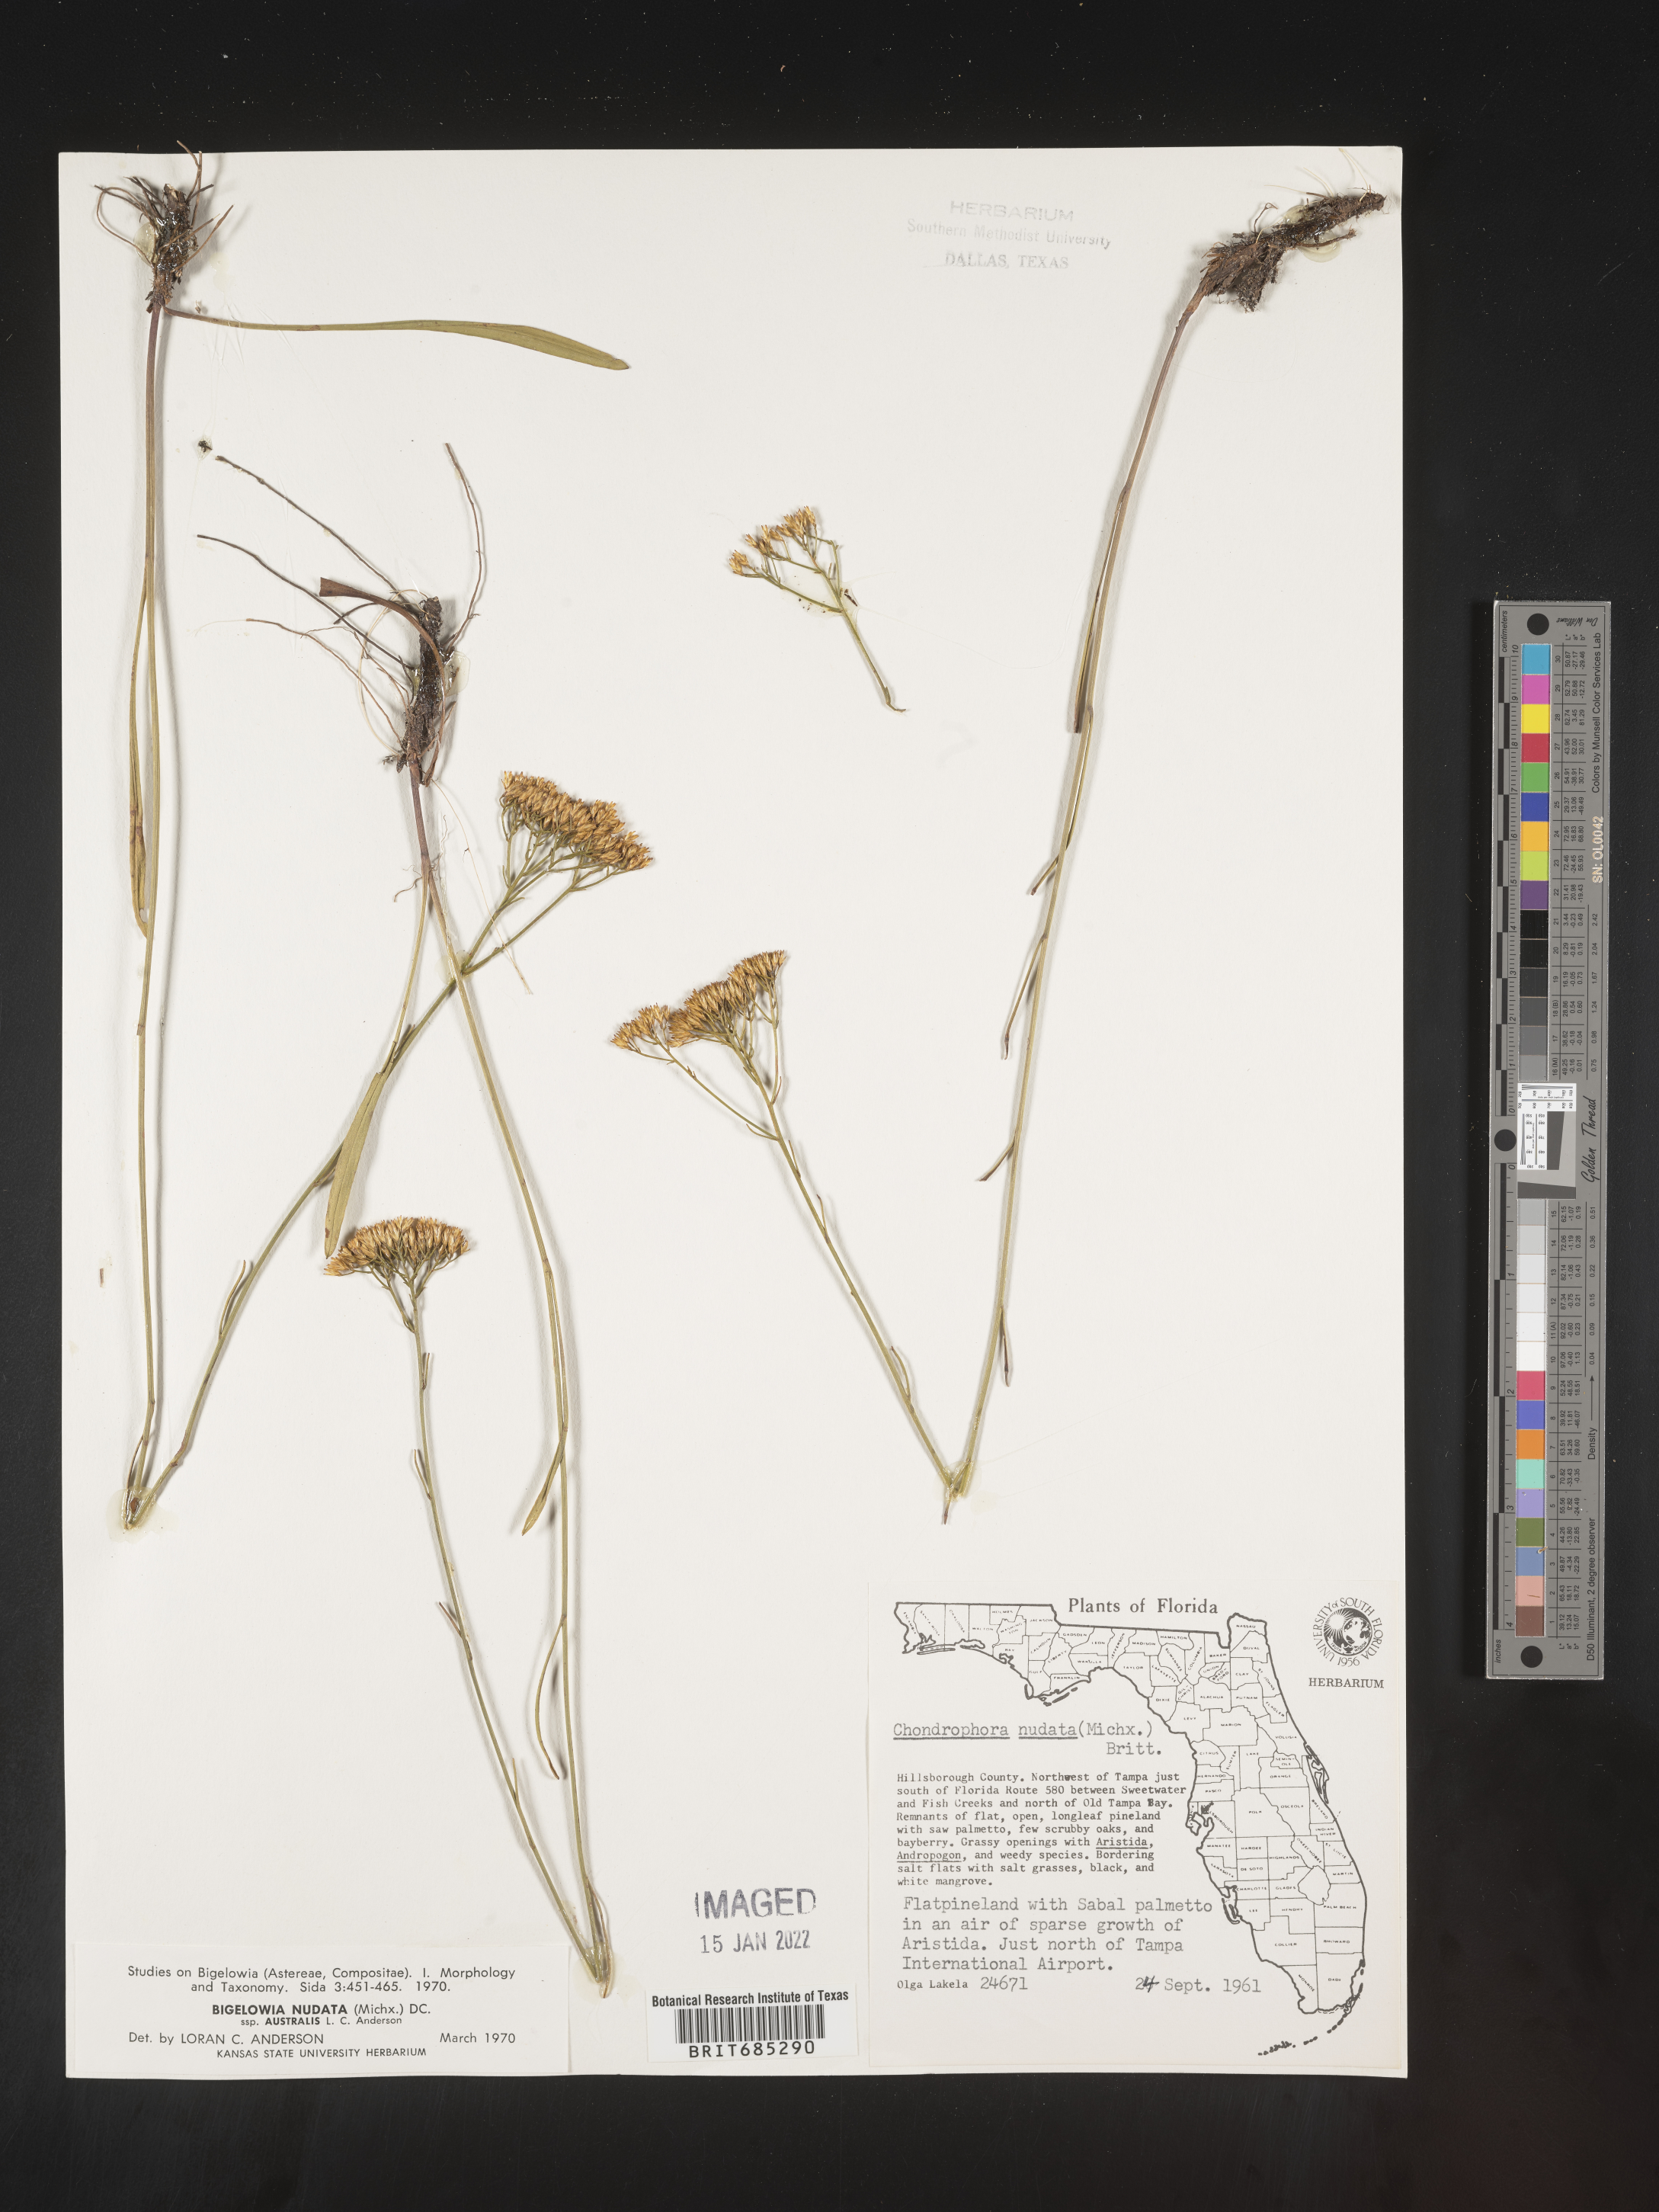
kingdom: Plantae
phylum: Tracheophyta
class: Magnoliopsida
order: Asterales
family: Asteraceae
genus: Bigelowia
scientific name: Bigelowia nudata
